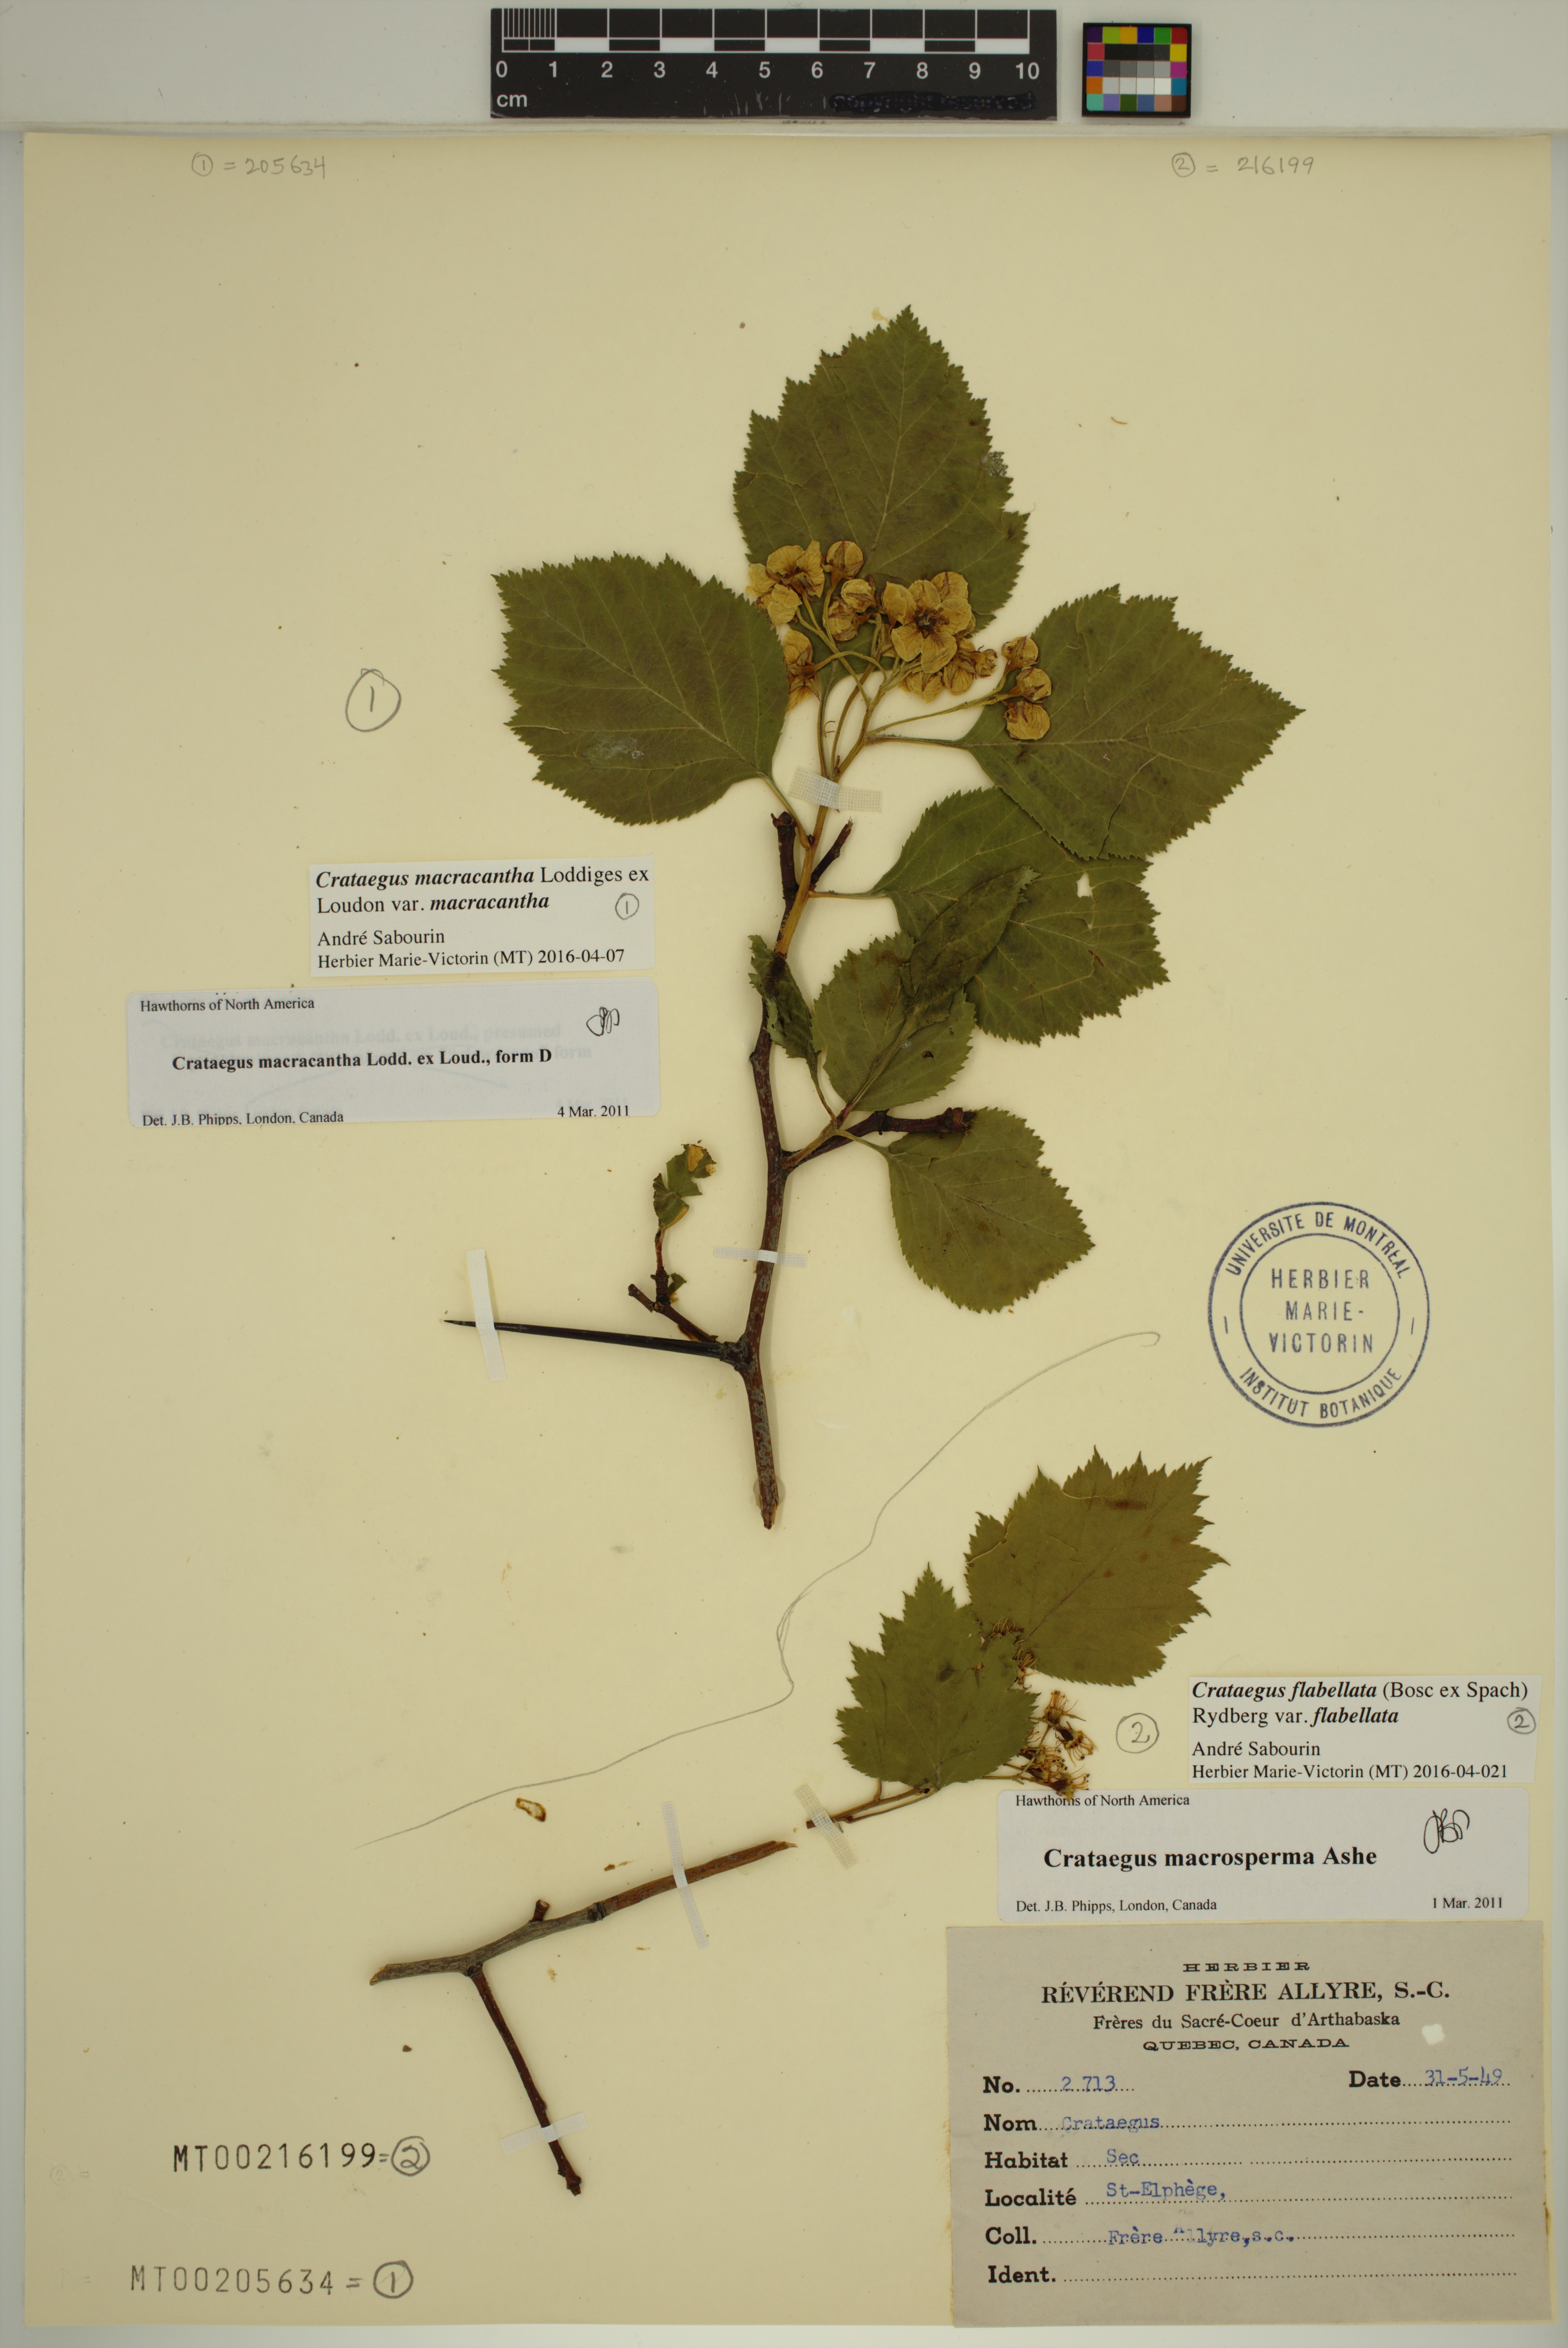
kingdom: Plantae
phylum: Tracheophyta
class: Magnoliopsida
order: Rosales
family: Rosaceae
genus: Crataegus
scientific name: Crataegus flabellata
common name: Bosc's hawthorn
